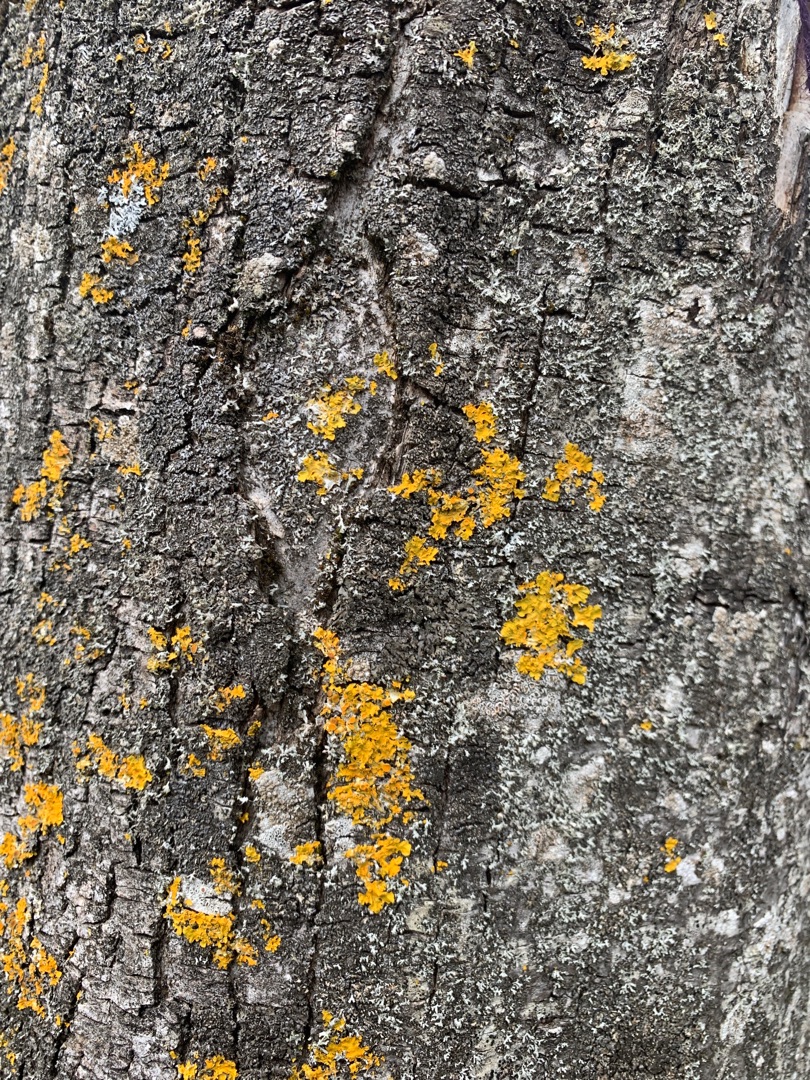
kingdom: Fungi
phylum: Ascomycota
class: Lecanoromycetes
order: Teloschistales
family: Teloschistaceae
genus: Xanthoria
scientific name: Xanthoria parietina
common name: Almindelig væggelav
